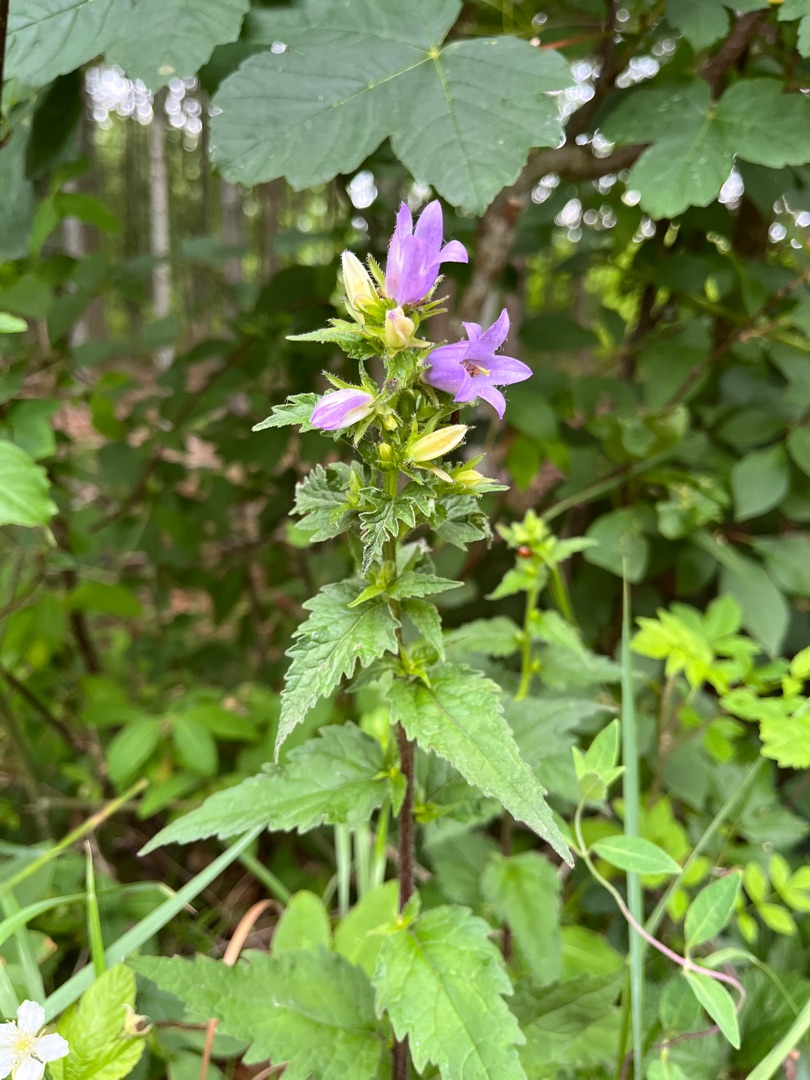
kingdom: Plantae
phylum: Tracheophyta
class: Magnoliopsida
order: Asterales
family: Campanulaceae
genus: Campanula
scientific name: Campanula trachelium
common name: Nælde-klokke
